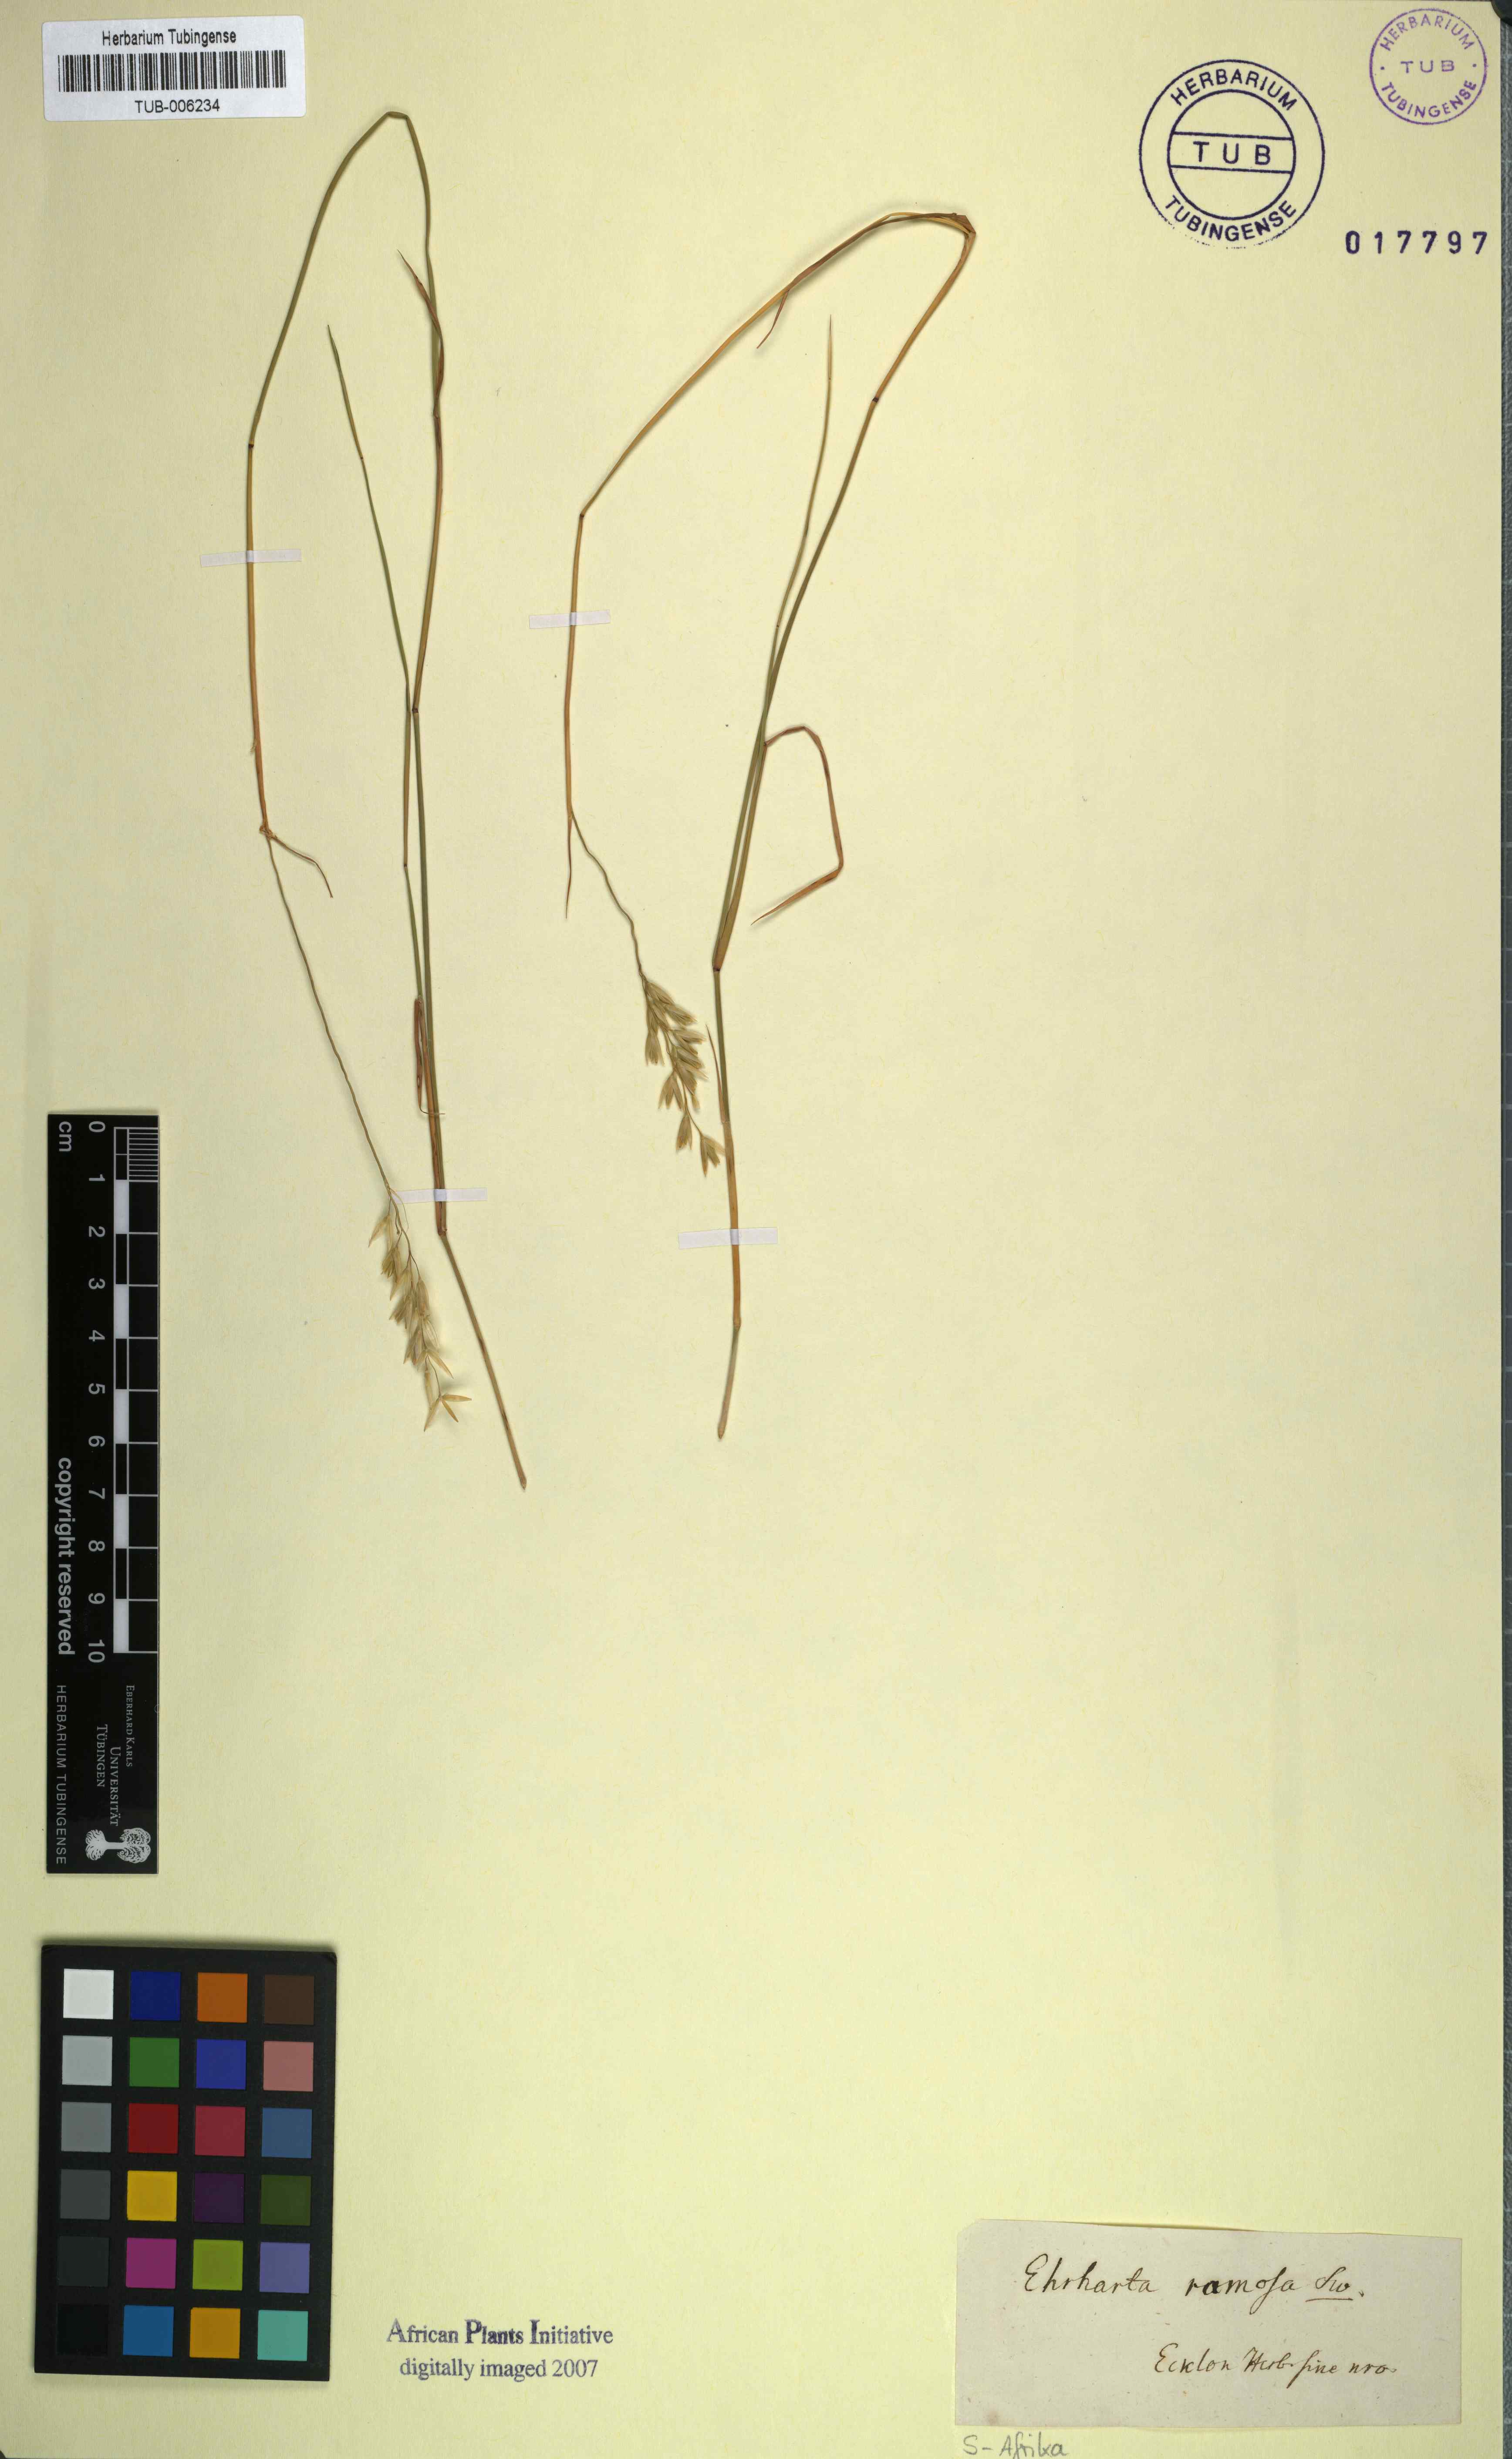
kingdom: Plantae
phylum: Tracheophyta
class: Liliopsida
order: Poales
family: Poaceae
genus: Ehrharta
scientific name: Ehrharta ramosa
